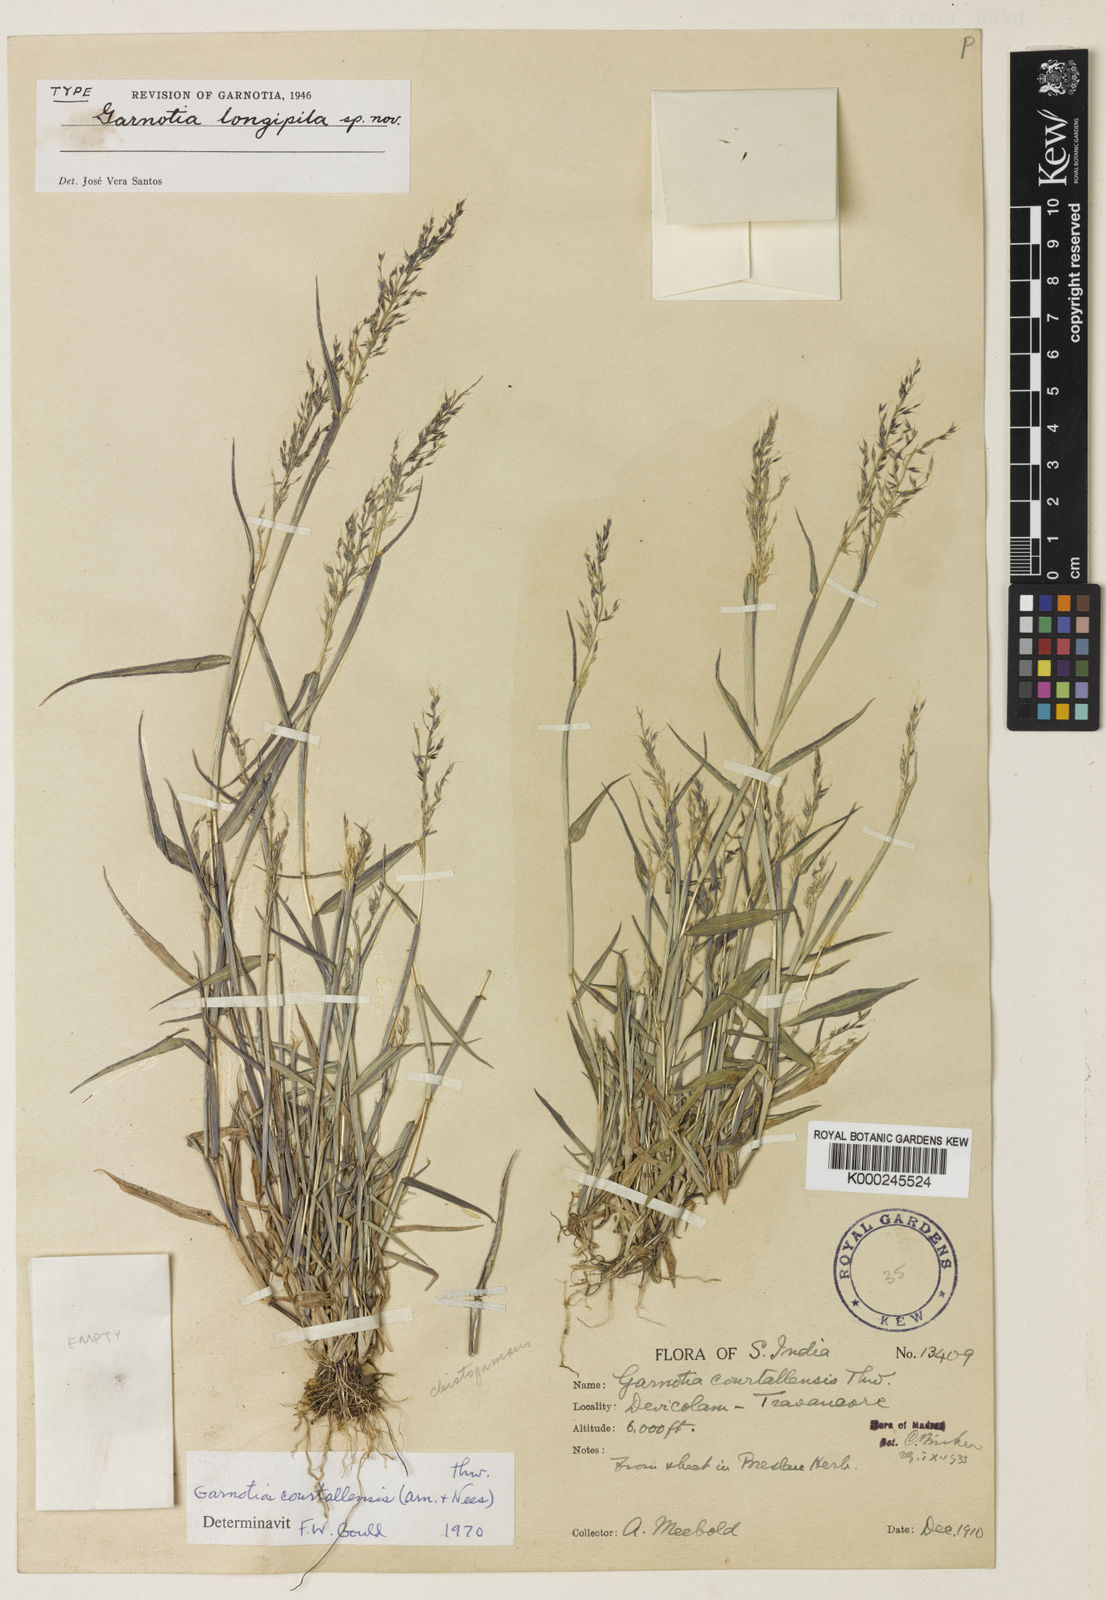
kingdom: Plantae
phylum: Tracheophyta
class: Liliopsida
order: Poales
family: Poaceae
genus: Garnotia
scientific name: Garnotia courtallensis
